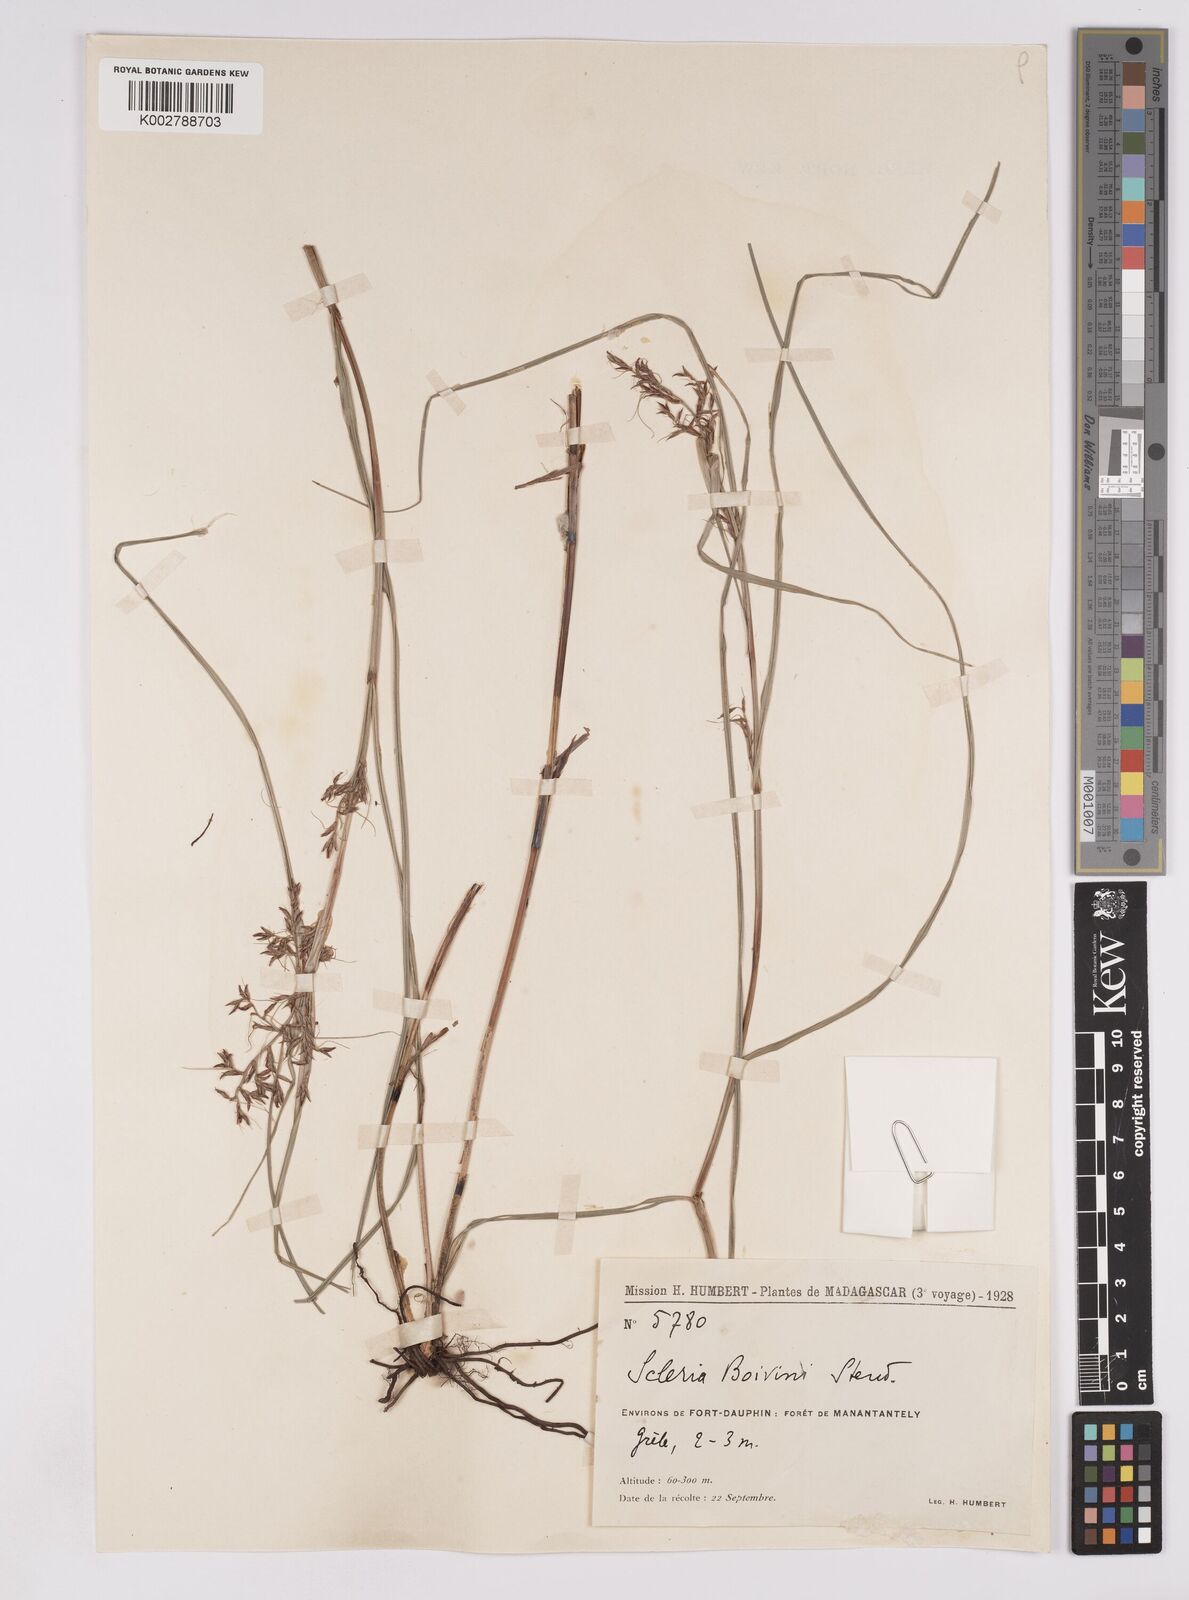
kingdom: Plantae
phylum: Tracheophyta
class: Liliopsida
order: Poales
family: Cyperaceae
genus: Scleria
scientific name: Scleria boivinii
